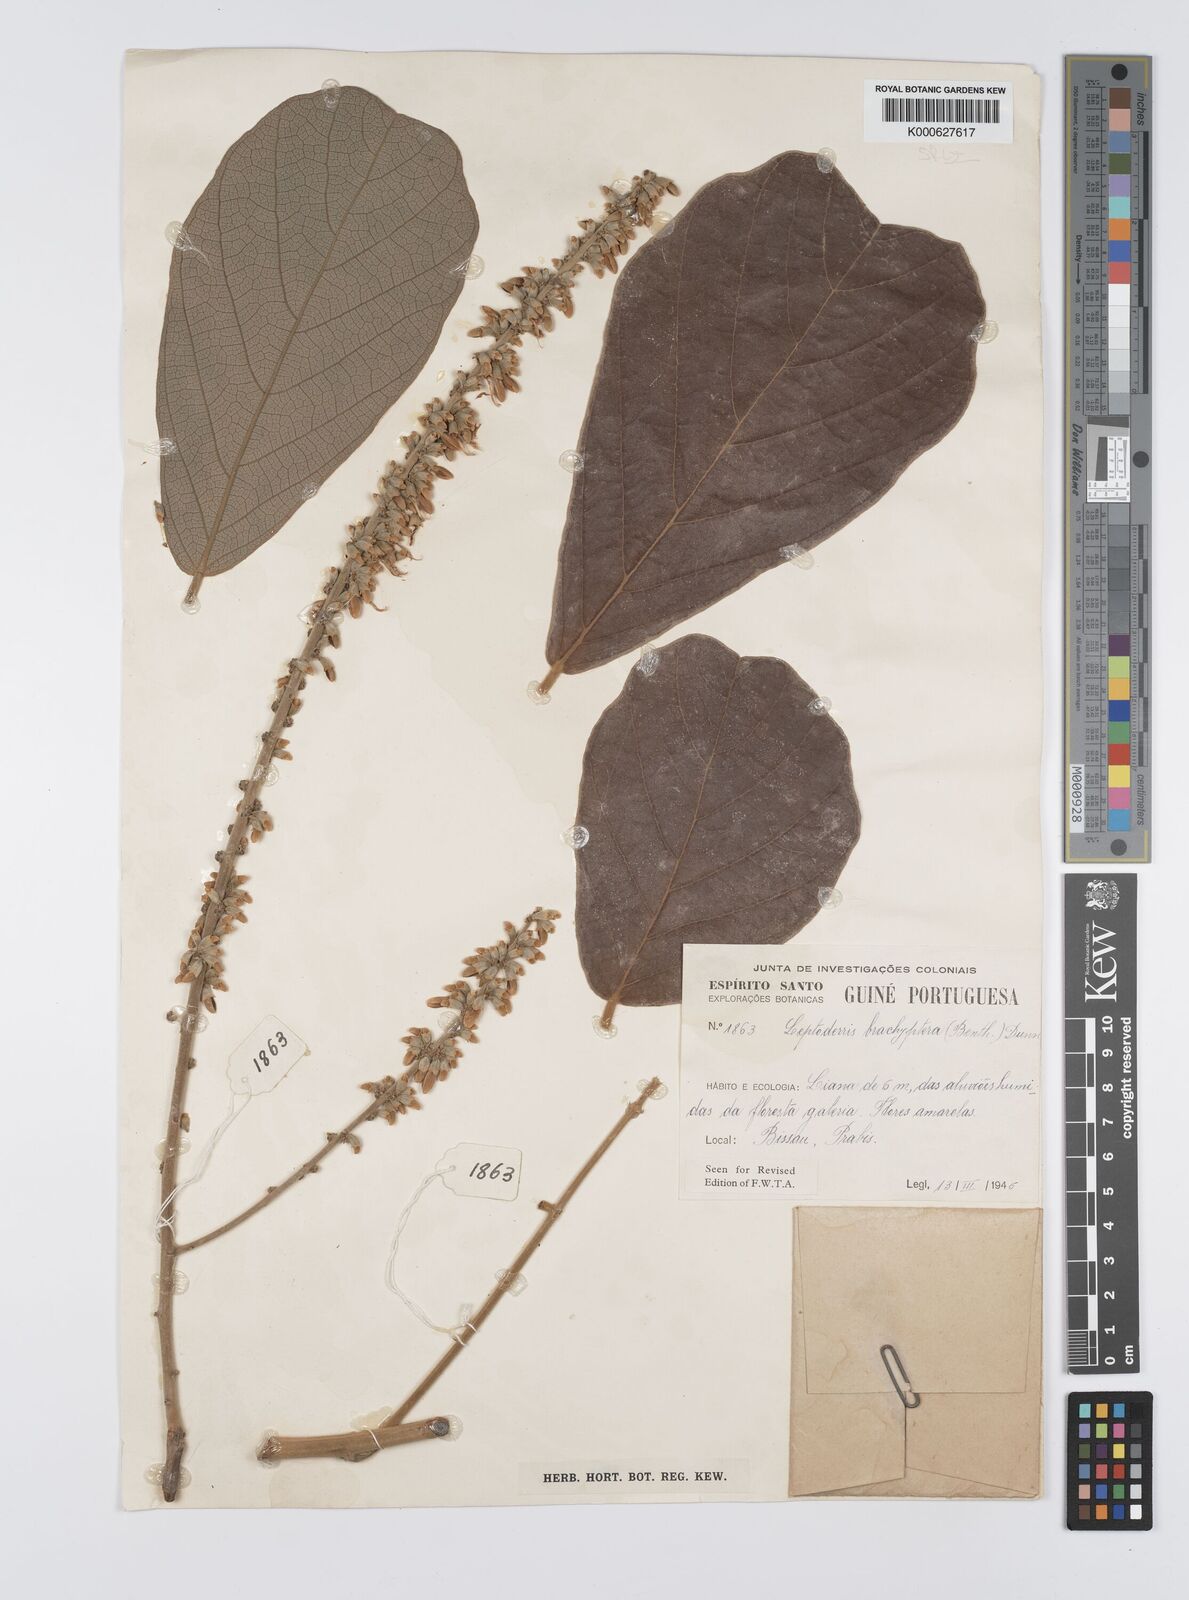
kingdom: Plantae
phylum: Tracheophyta
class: Magnoliopsida
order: Fabales
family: Fabaceae
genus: Leptoderris
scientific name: Leptoderris brachyptera
